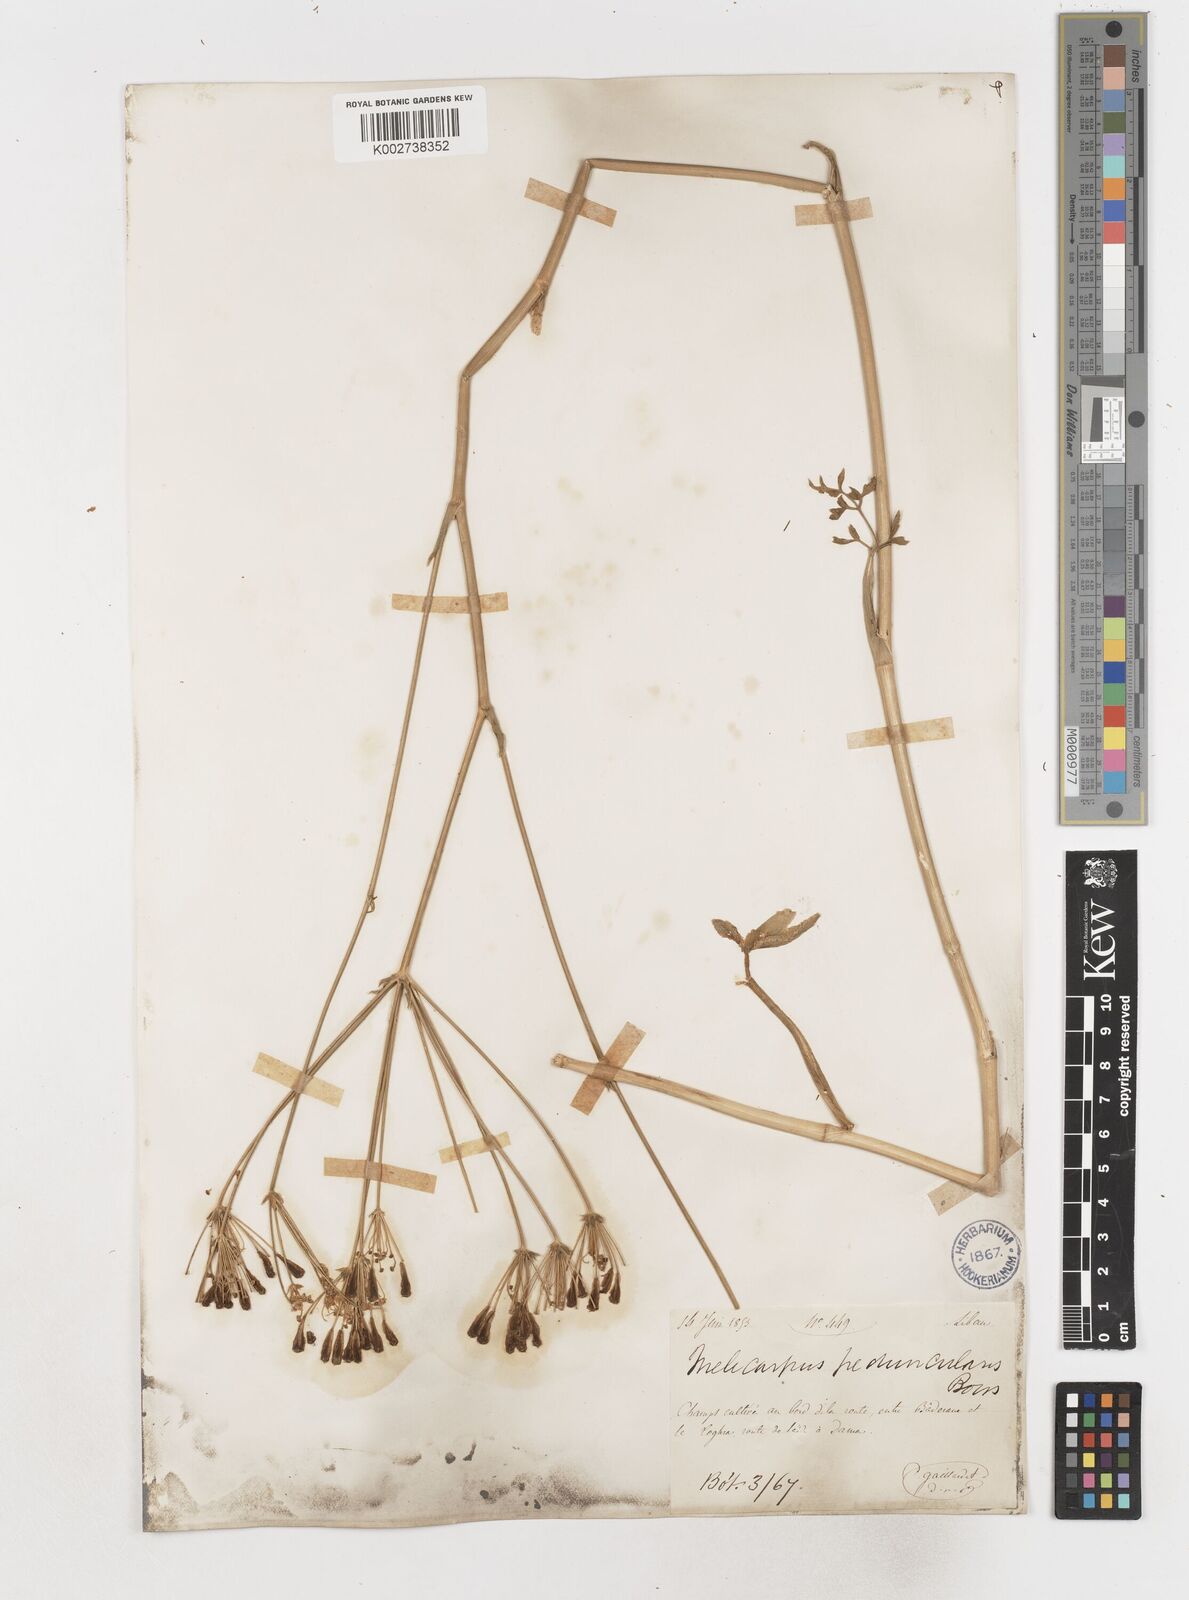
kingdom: Plantae
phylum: Tracheophyta
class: Magnoliopsida
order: Apiales
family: Apiaceae
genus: Heptaptera
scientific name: Heptaptera anisoptera
